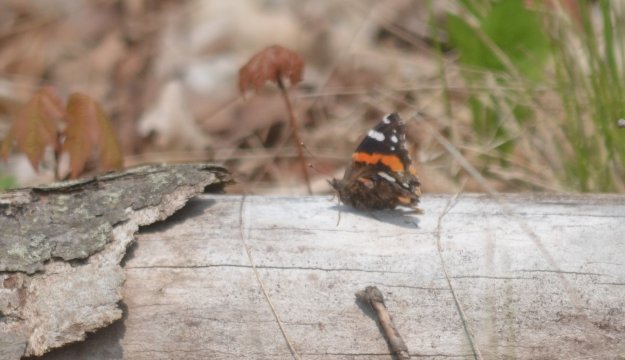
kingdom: Animalia
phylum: Arthropoda
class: Insecta
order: Lepidoptera
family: Nymphalidae
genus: Vanessa
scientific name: Vanessa atalanta
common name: Red Admiral
